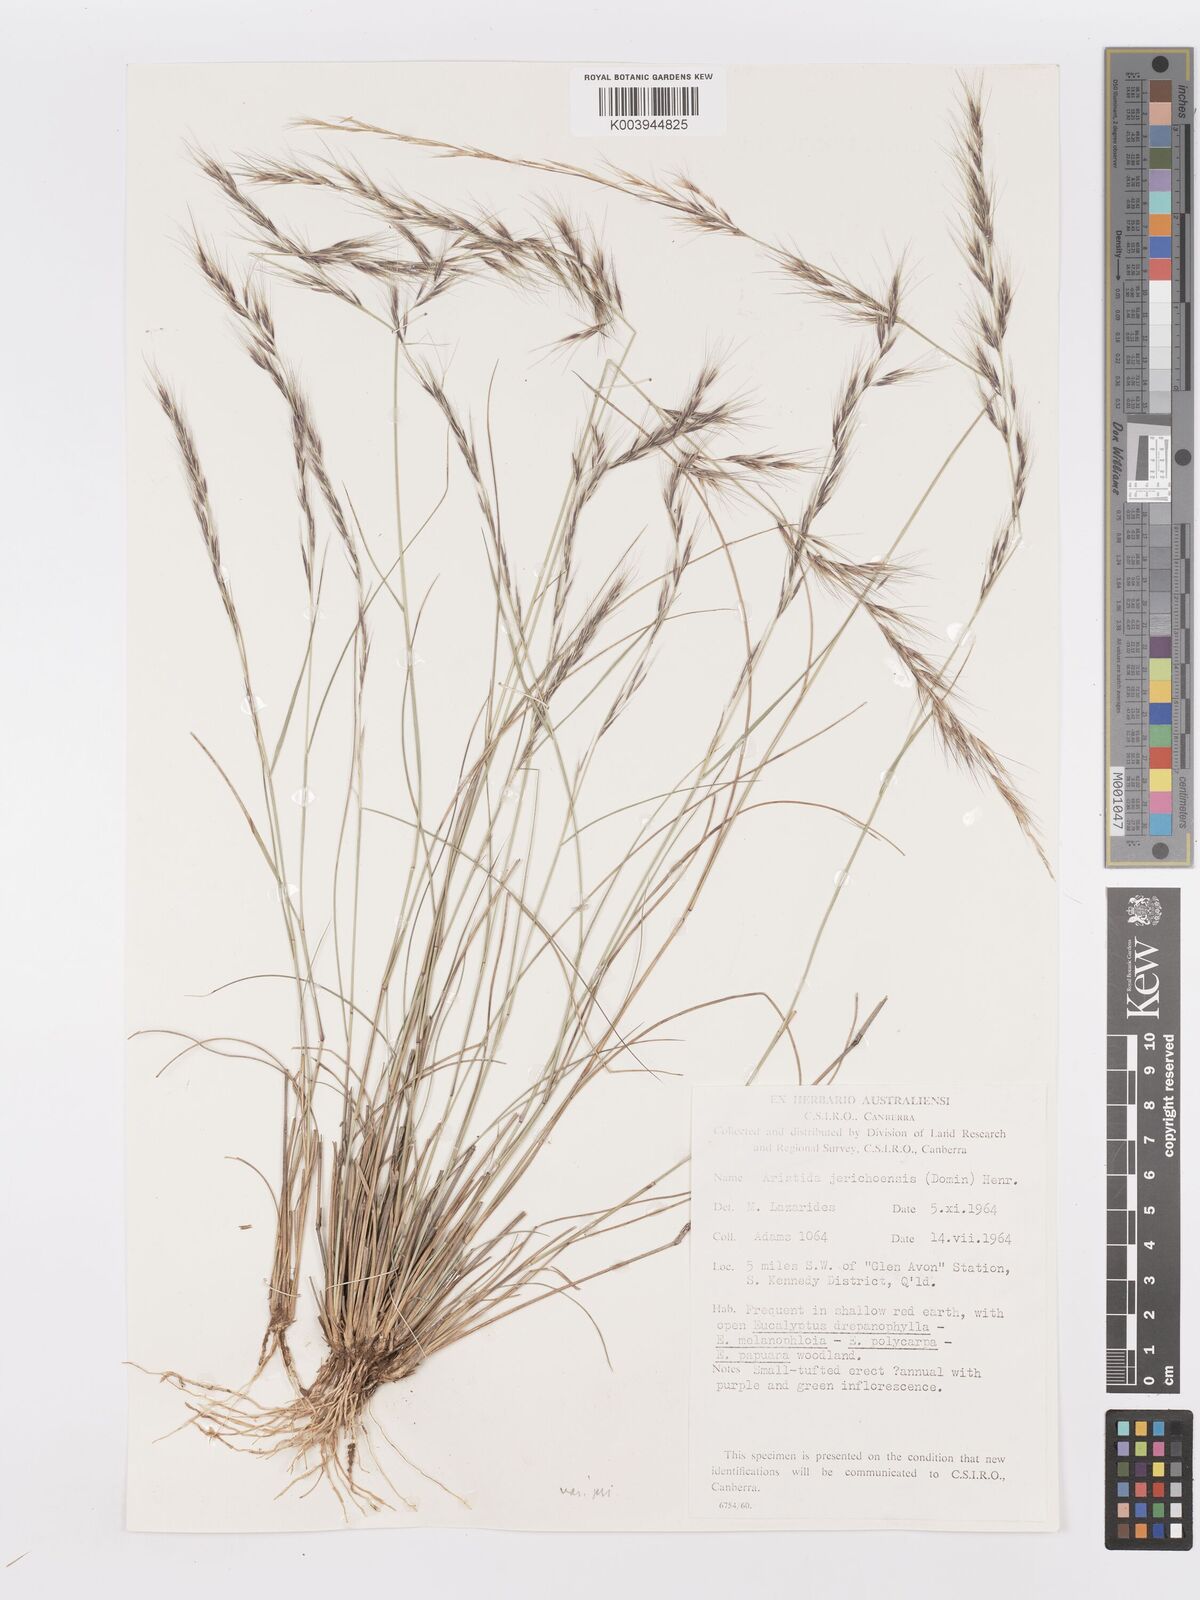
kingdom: Plantae
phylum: Tracheophyta
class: Liliopsida
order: Poales
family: Poaceae
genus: Aristida
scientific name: Aristida jerichoensis
